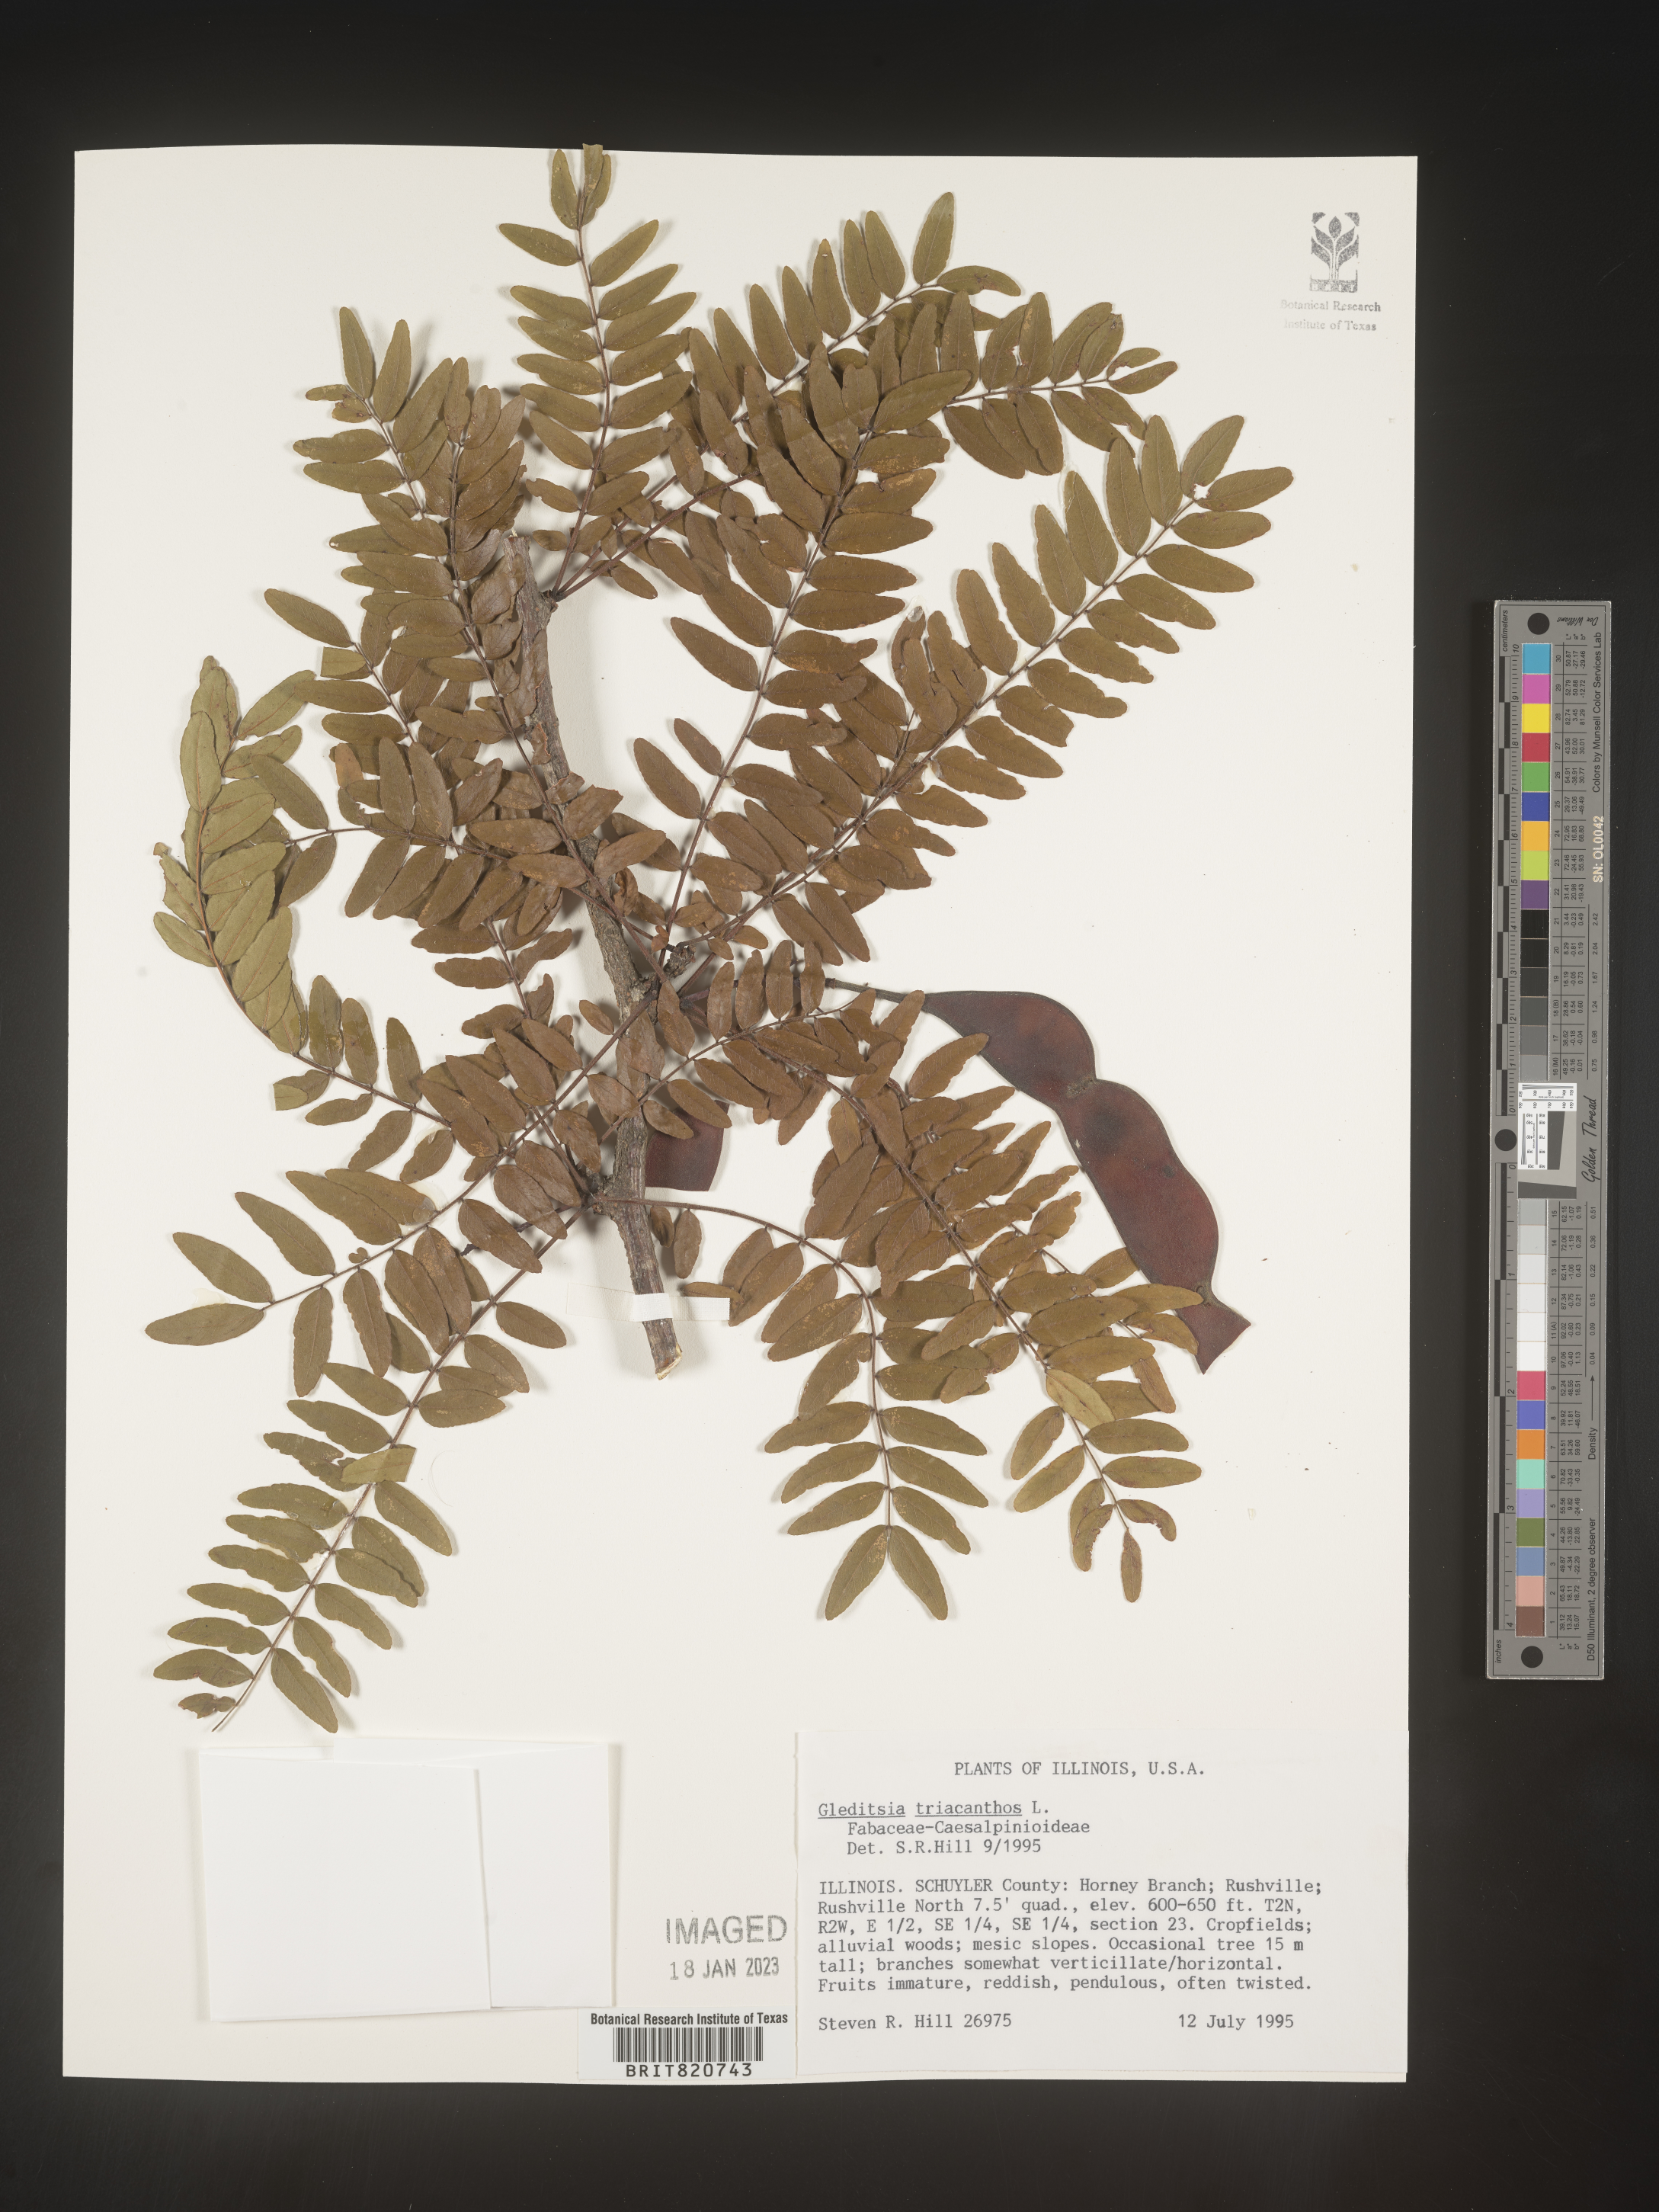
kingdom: Plantae
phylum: Tracheophyta
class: Magnoliopsida
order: Fabales
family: Fabaceae
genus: Gleditsia
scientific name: Gleditsia triacanthos
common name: Common honeylocust
